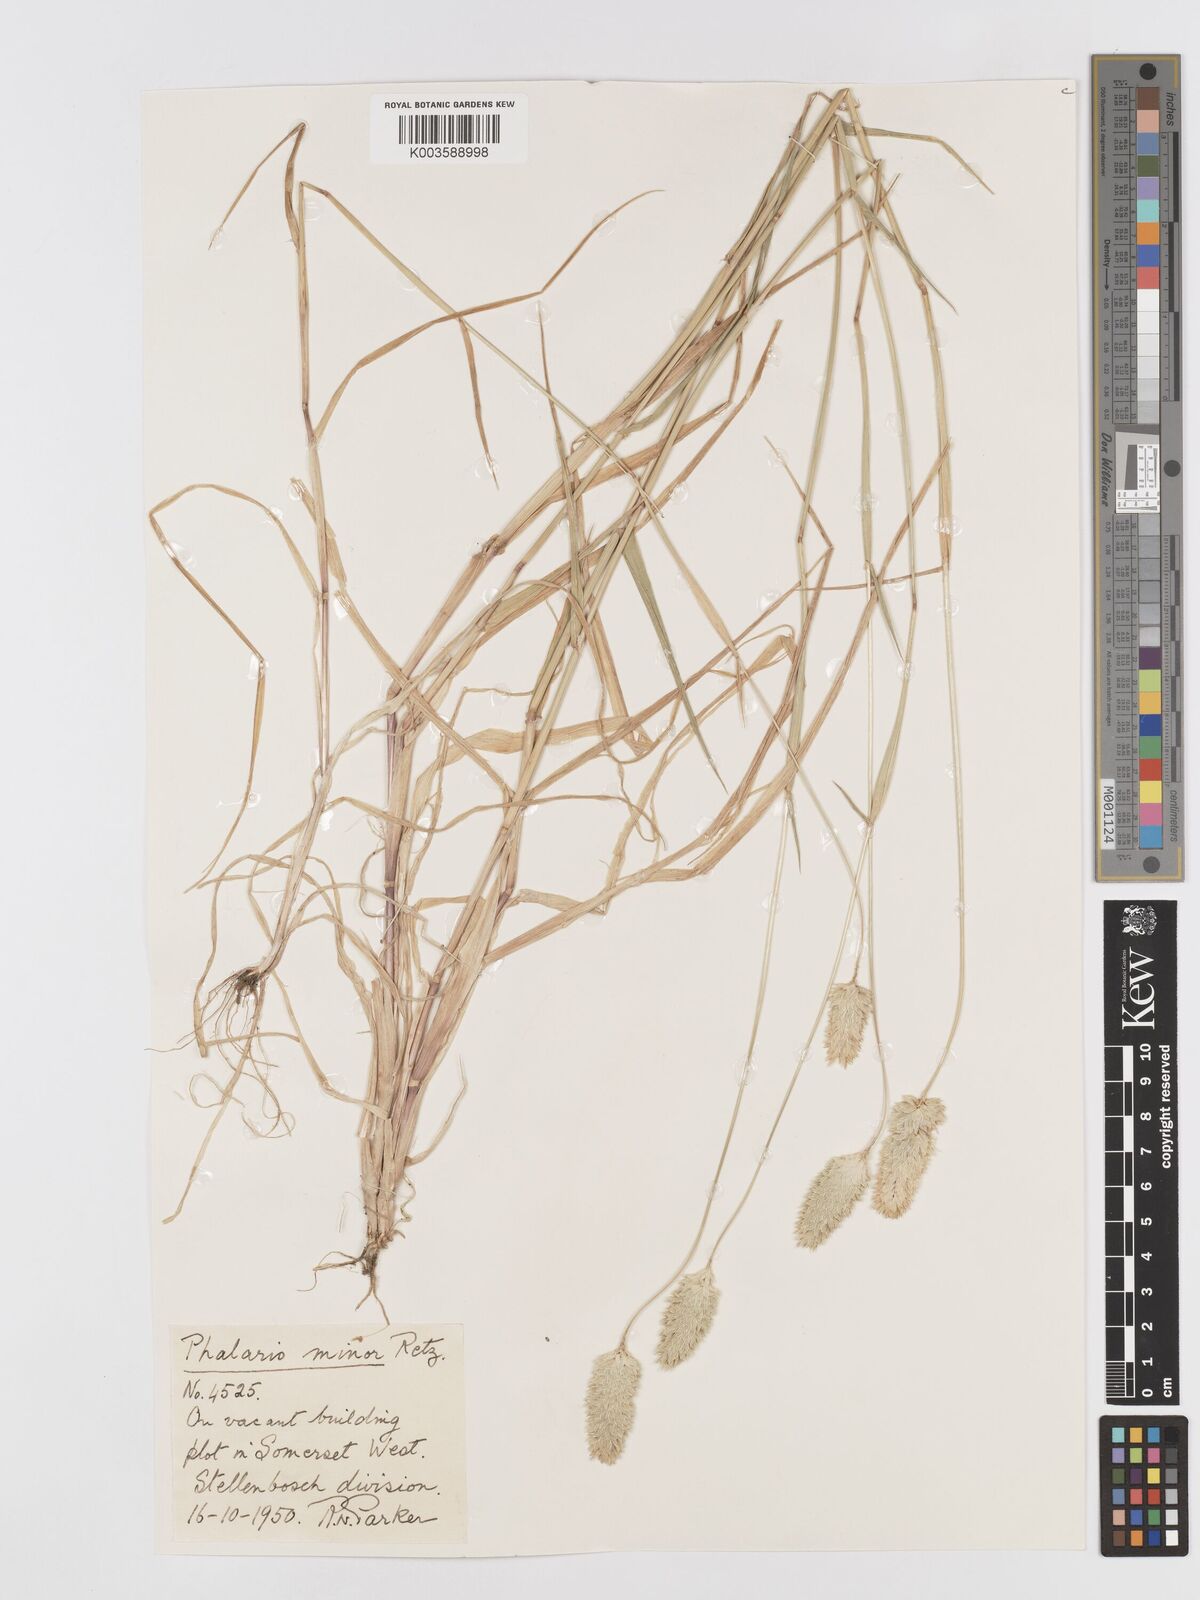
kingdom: Plantae
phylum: Tracheophyta
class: Liliopsida
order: Poales
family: Poaceae
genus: Phalaris
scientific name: Phalaris minor
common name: Littleseed canarygrass
